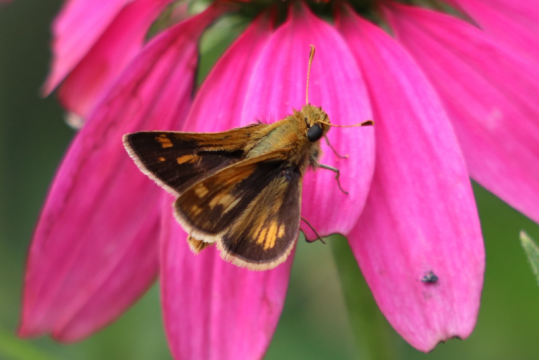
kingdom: Animalia
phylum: Arthropoda
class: Insecta
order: Lepidoptera
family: Hesperiidae
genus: Polites
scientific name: Polites coras
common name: Peck's Skipper
